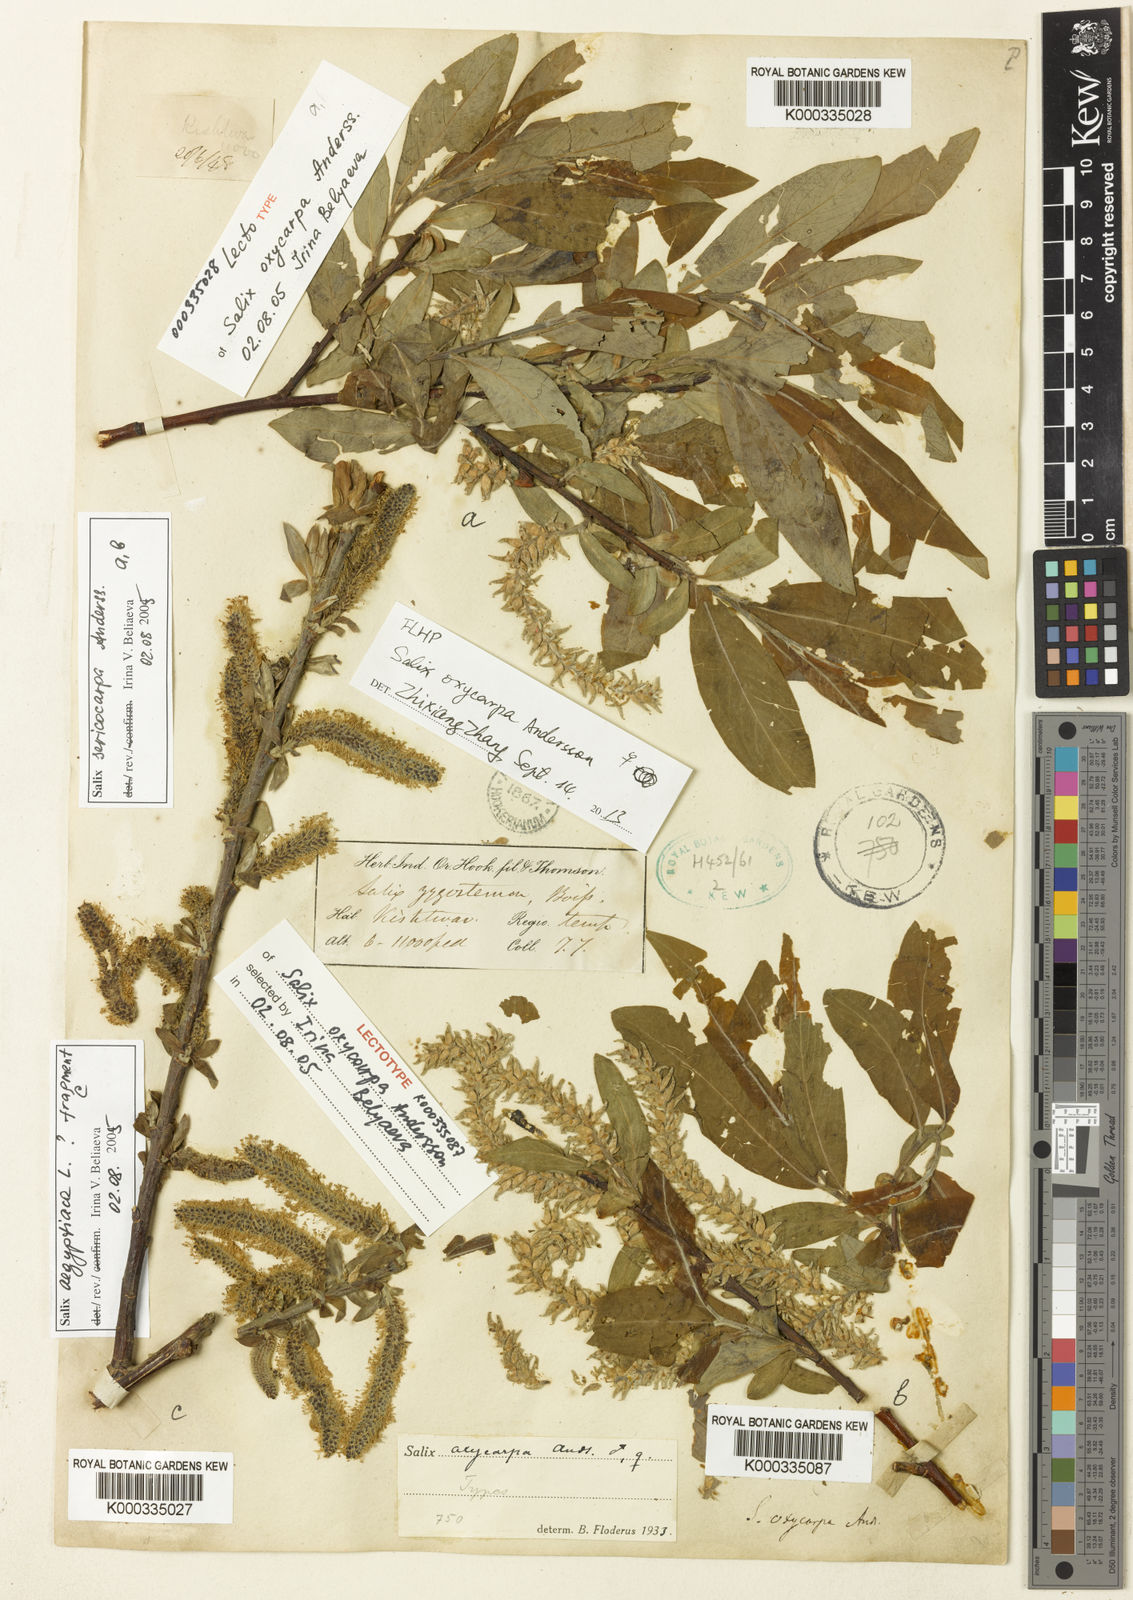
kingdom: Plantae
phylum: Tracheophyta
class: Magnoliopsida
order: Malpighiales
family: Salicaceae
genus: Salix
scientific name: Salix sericocarpa
